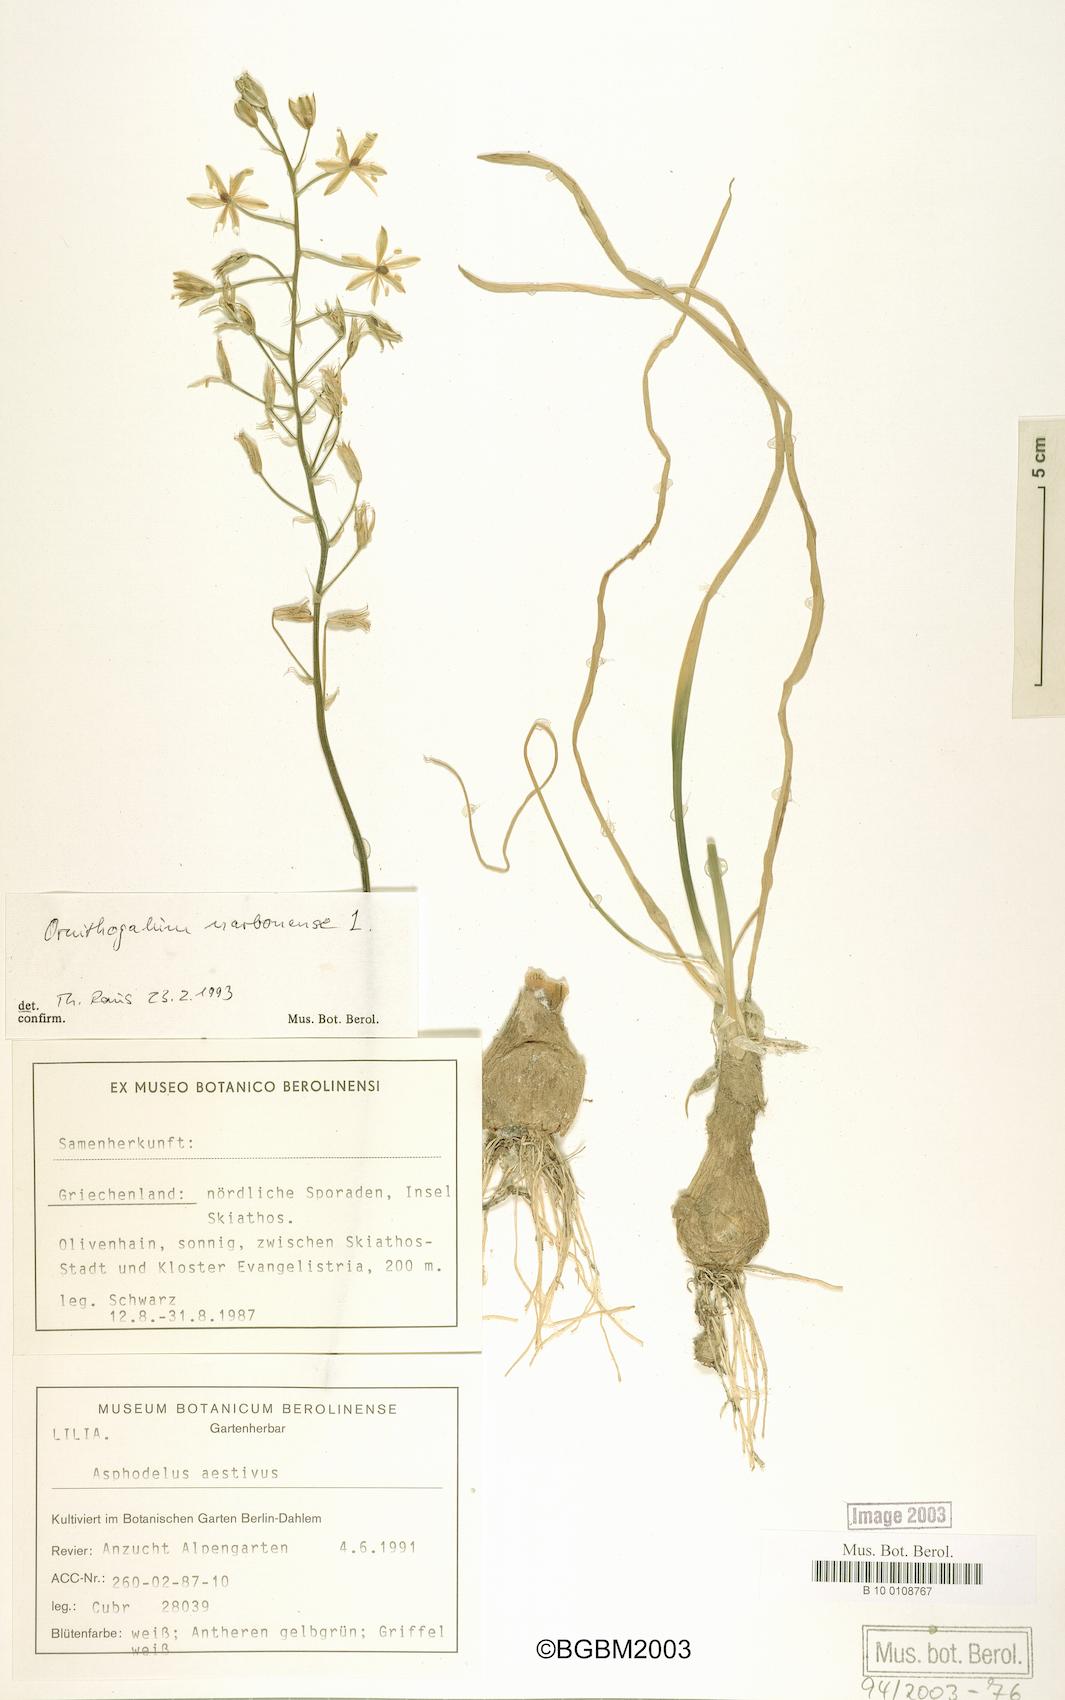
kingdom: Plantae
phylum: Tracheophyta
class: Liliopsida
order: Asparagales
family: Asparagaceae
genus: Ornithogalum
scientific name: Ornithogalum narbonense
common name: Bath-asparagus
